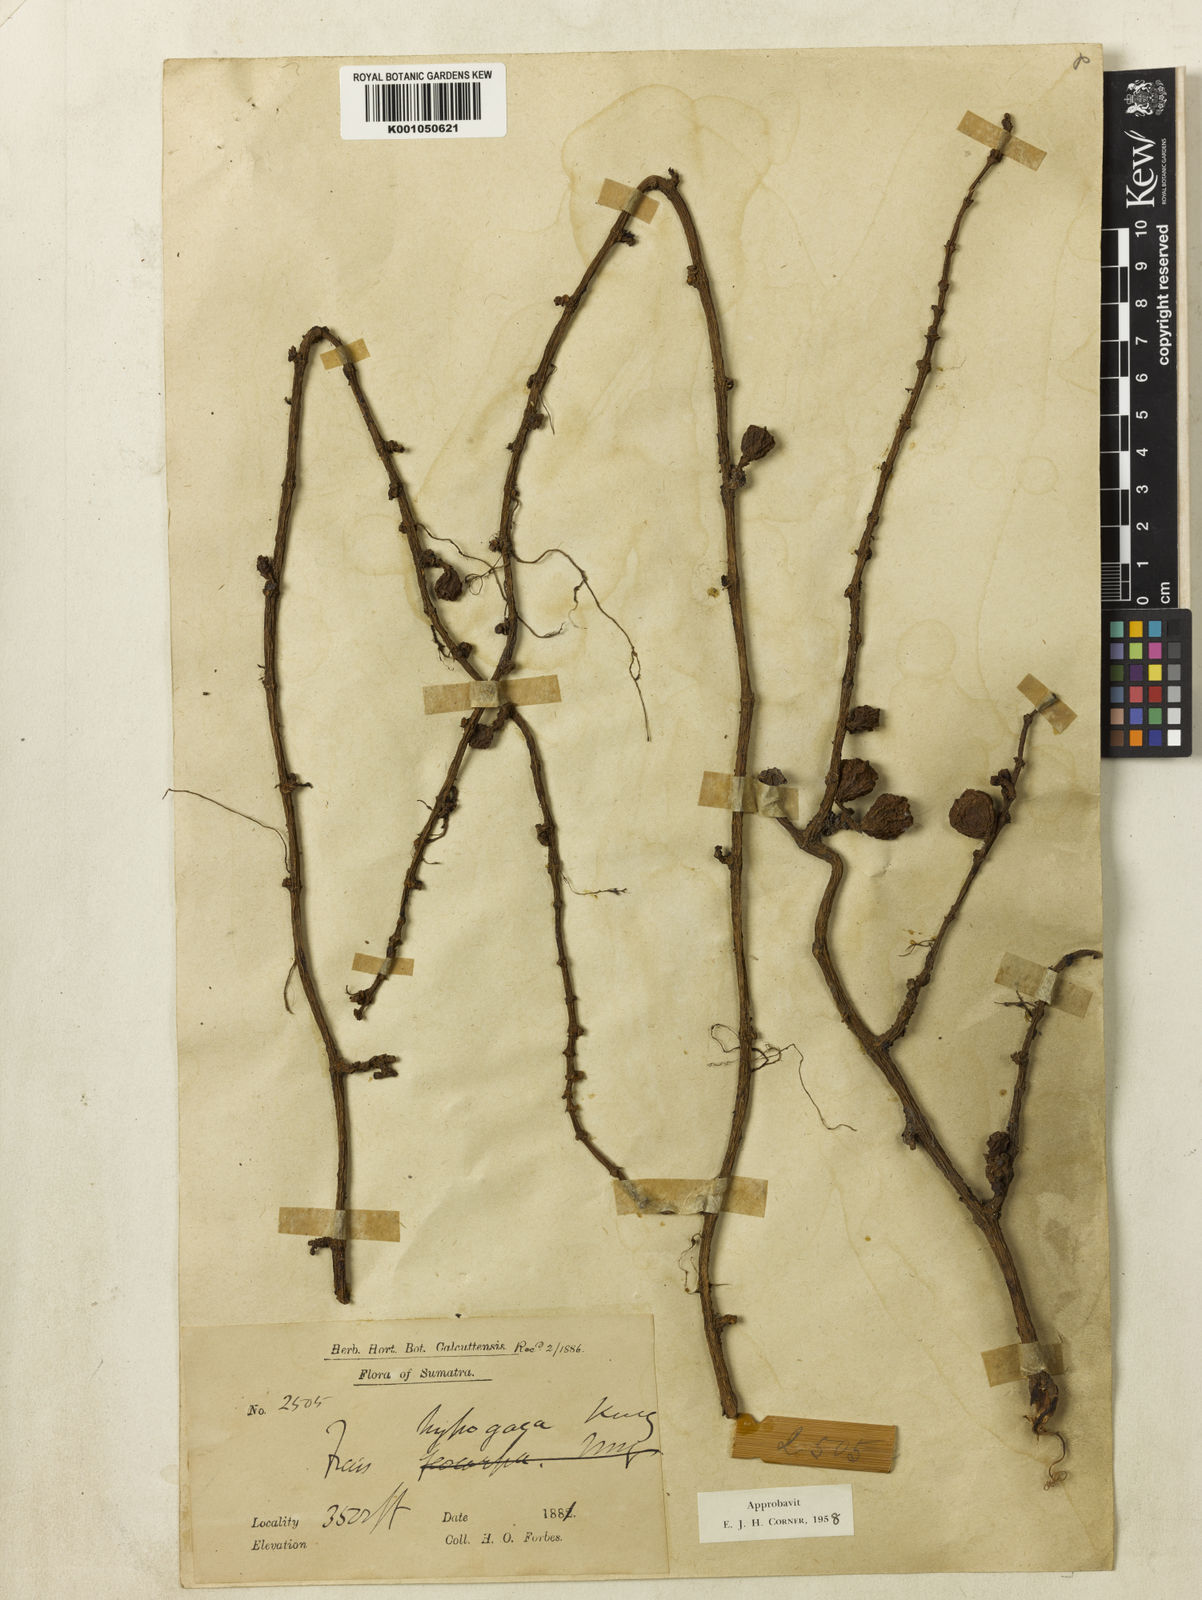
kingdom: Plantae
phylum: Tracheophyta
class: Magnoliopsida
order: Rosales
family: Moraceae
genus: Ficus
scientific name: Ficus gilapong
